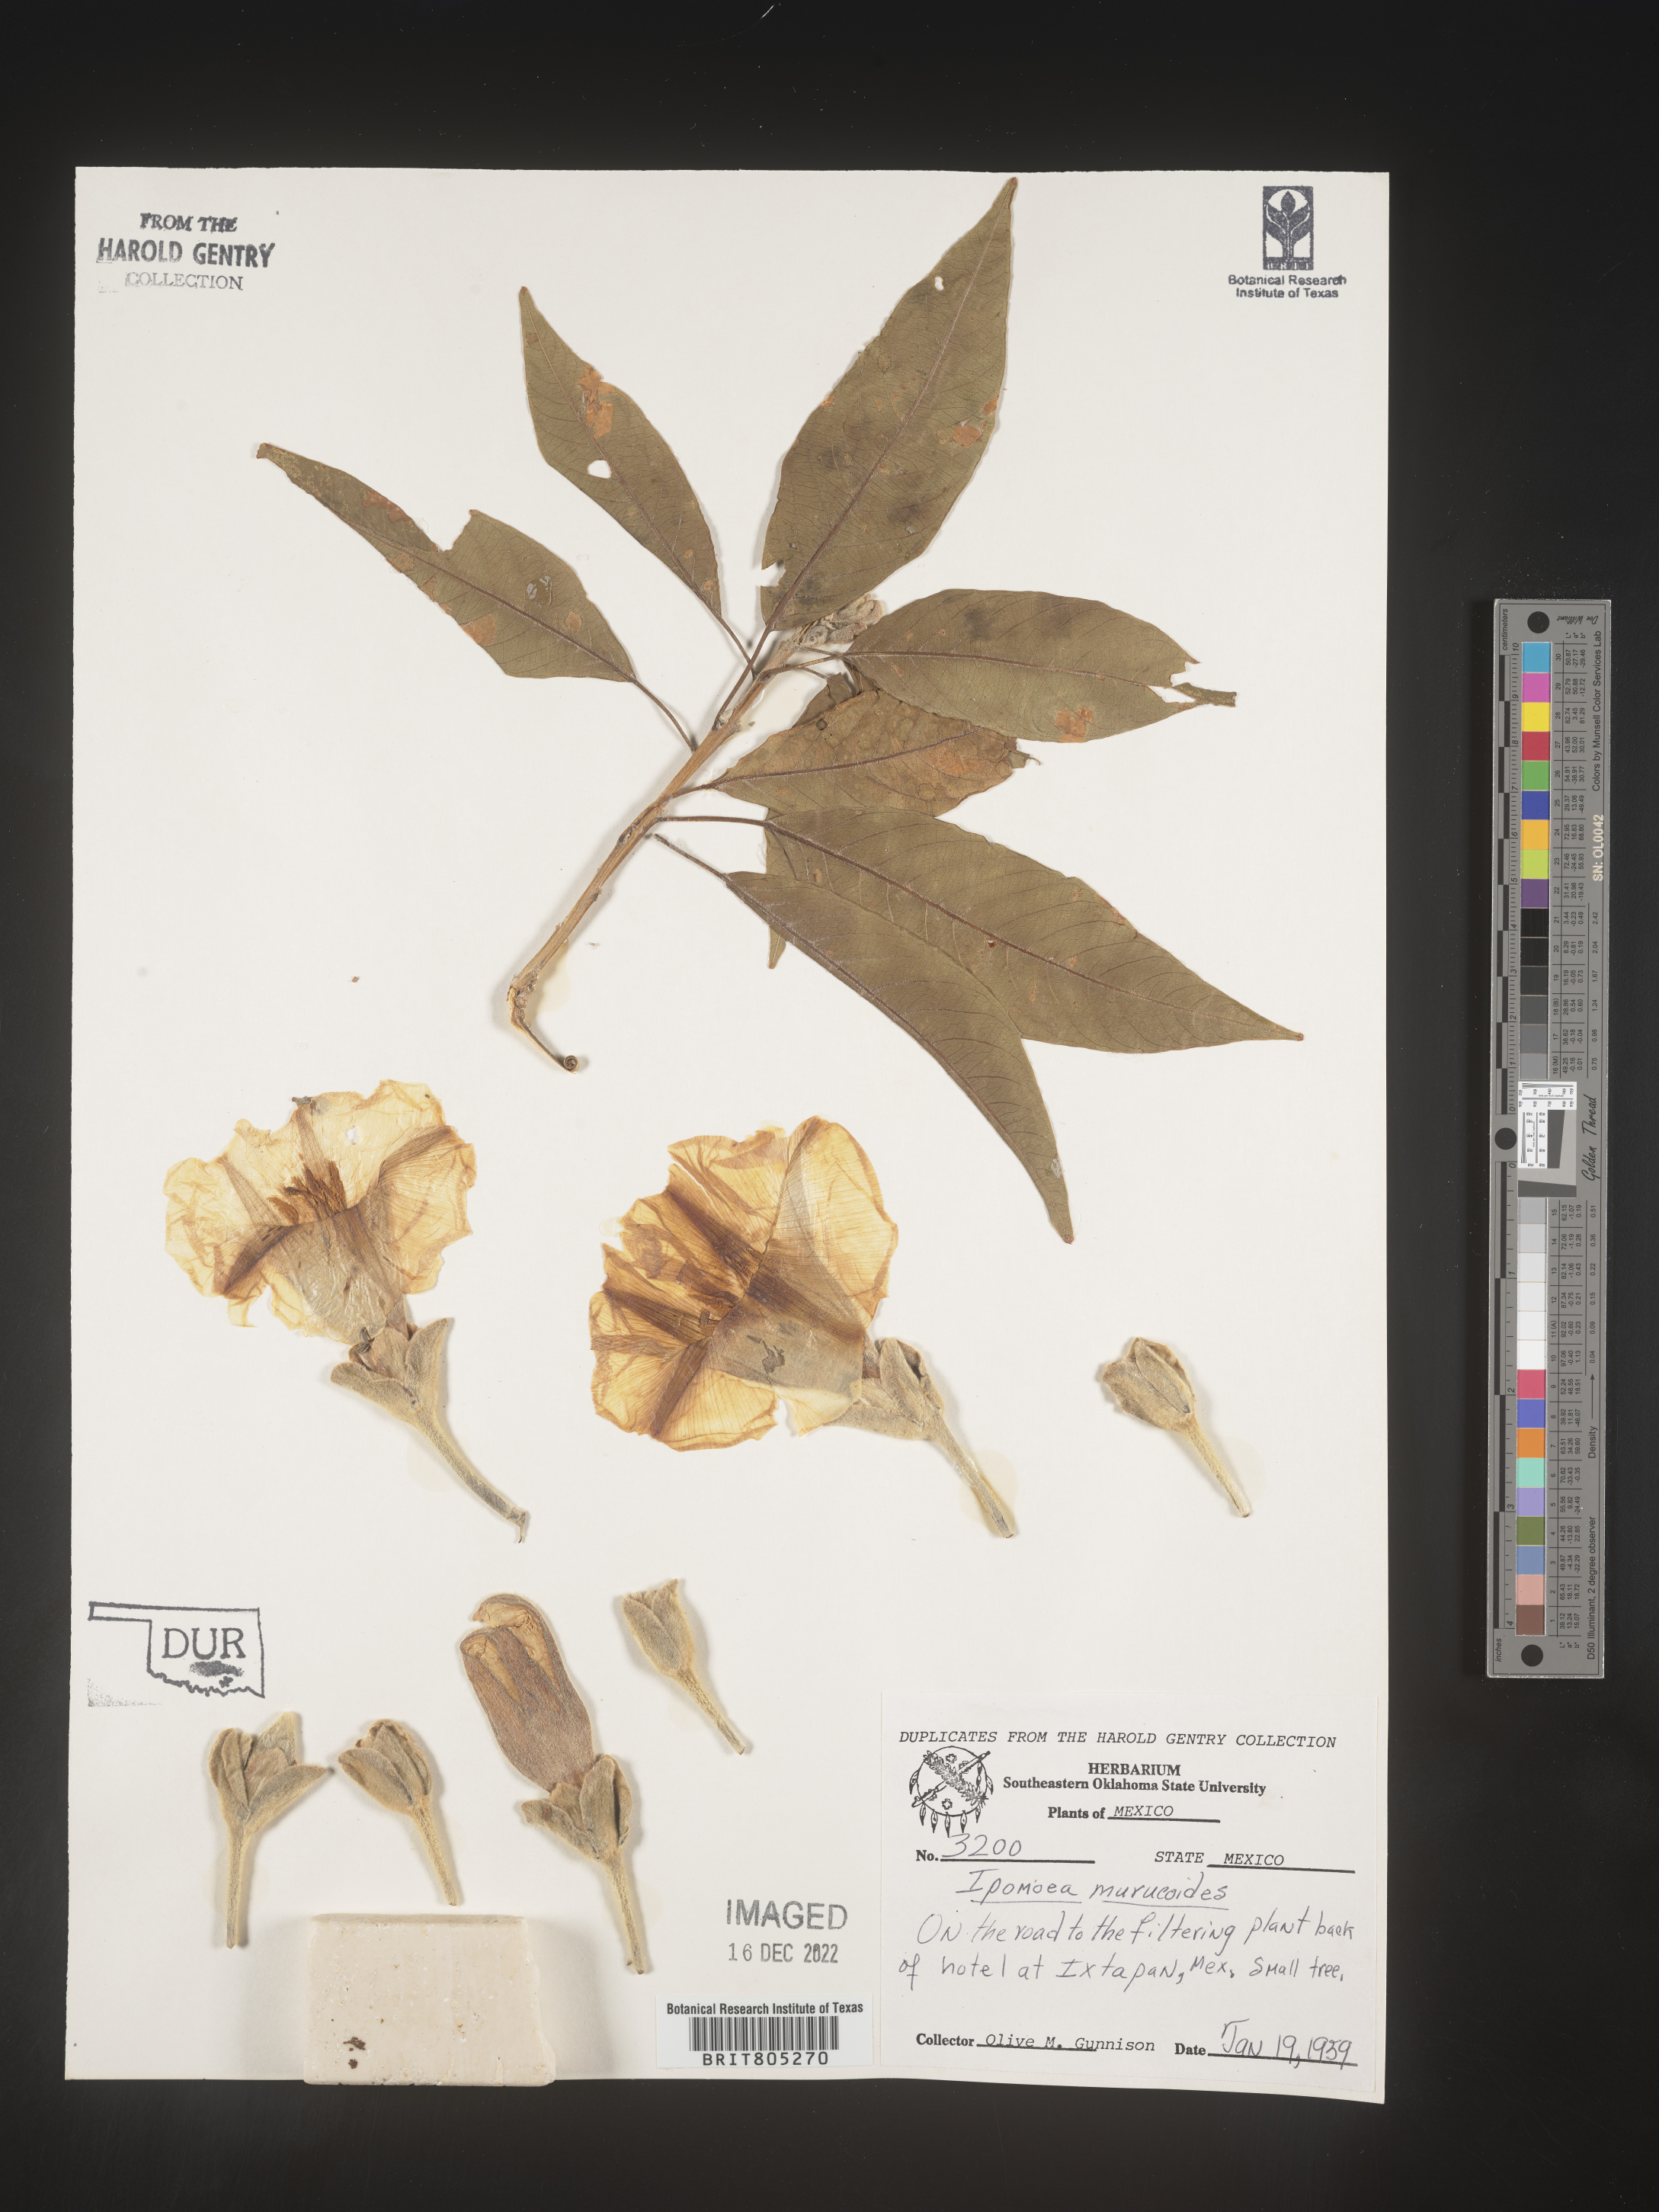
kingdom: Plantae
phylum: Tracheophyta
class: Magnoliopsida
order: Solanales
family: Convolvulaceae
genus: Ipomoea
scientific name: Ipomoea
